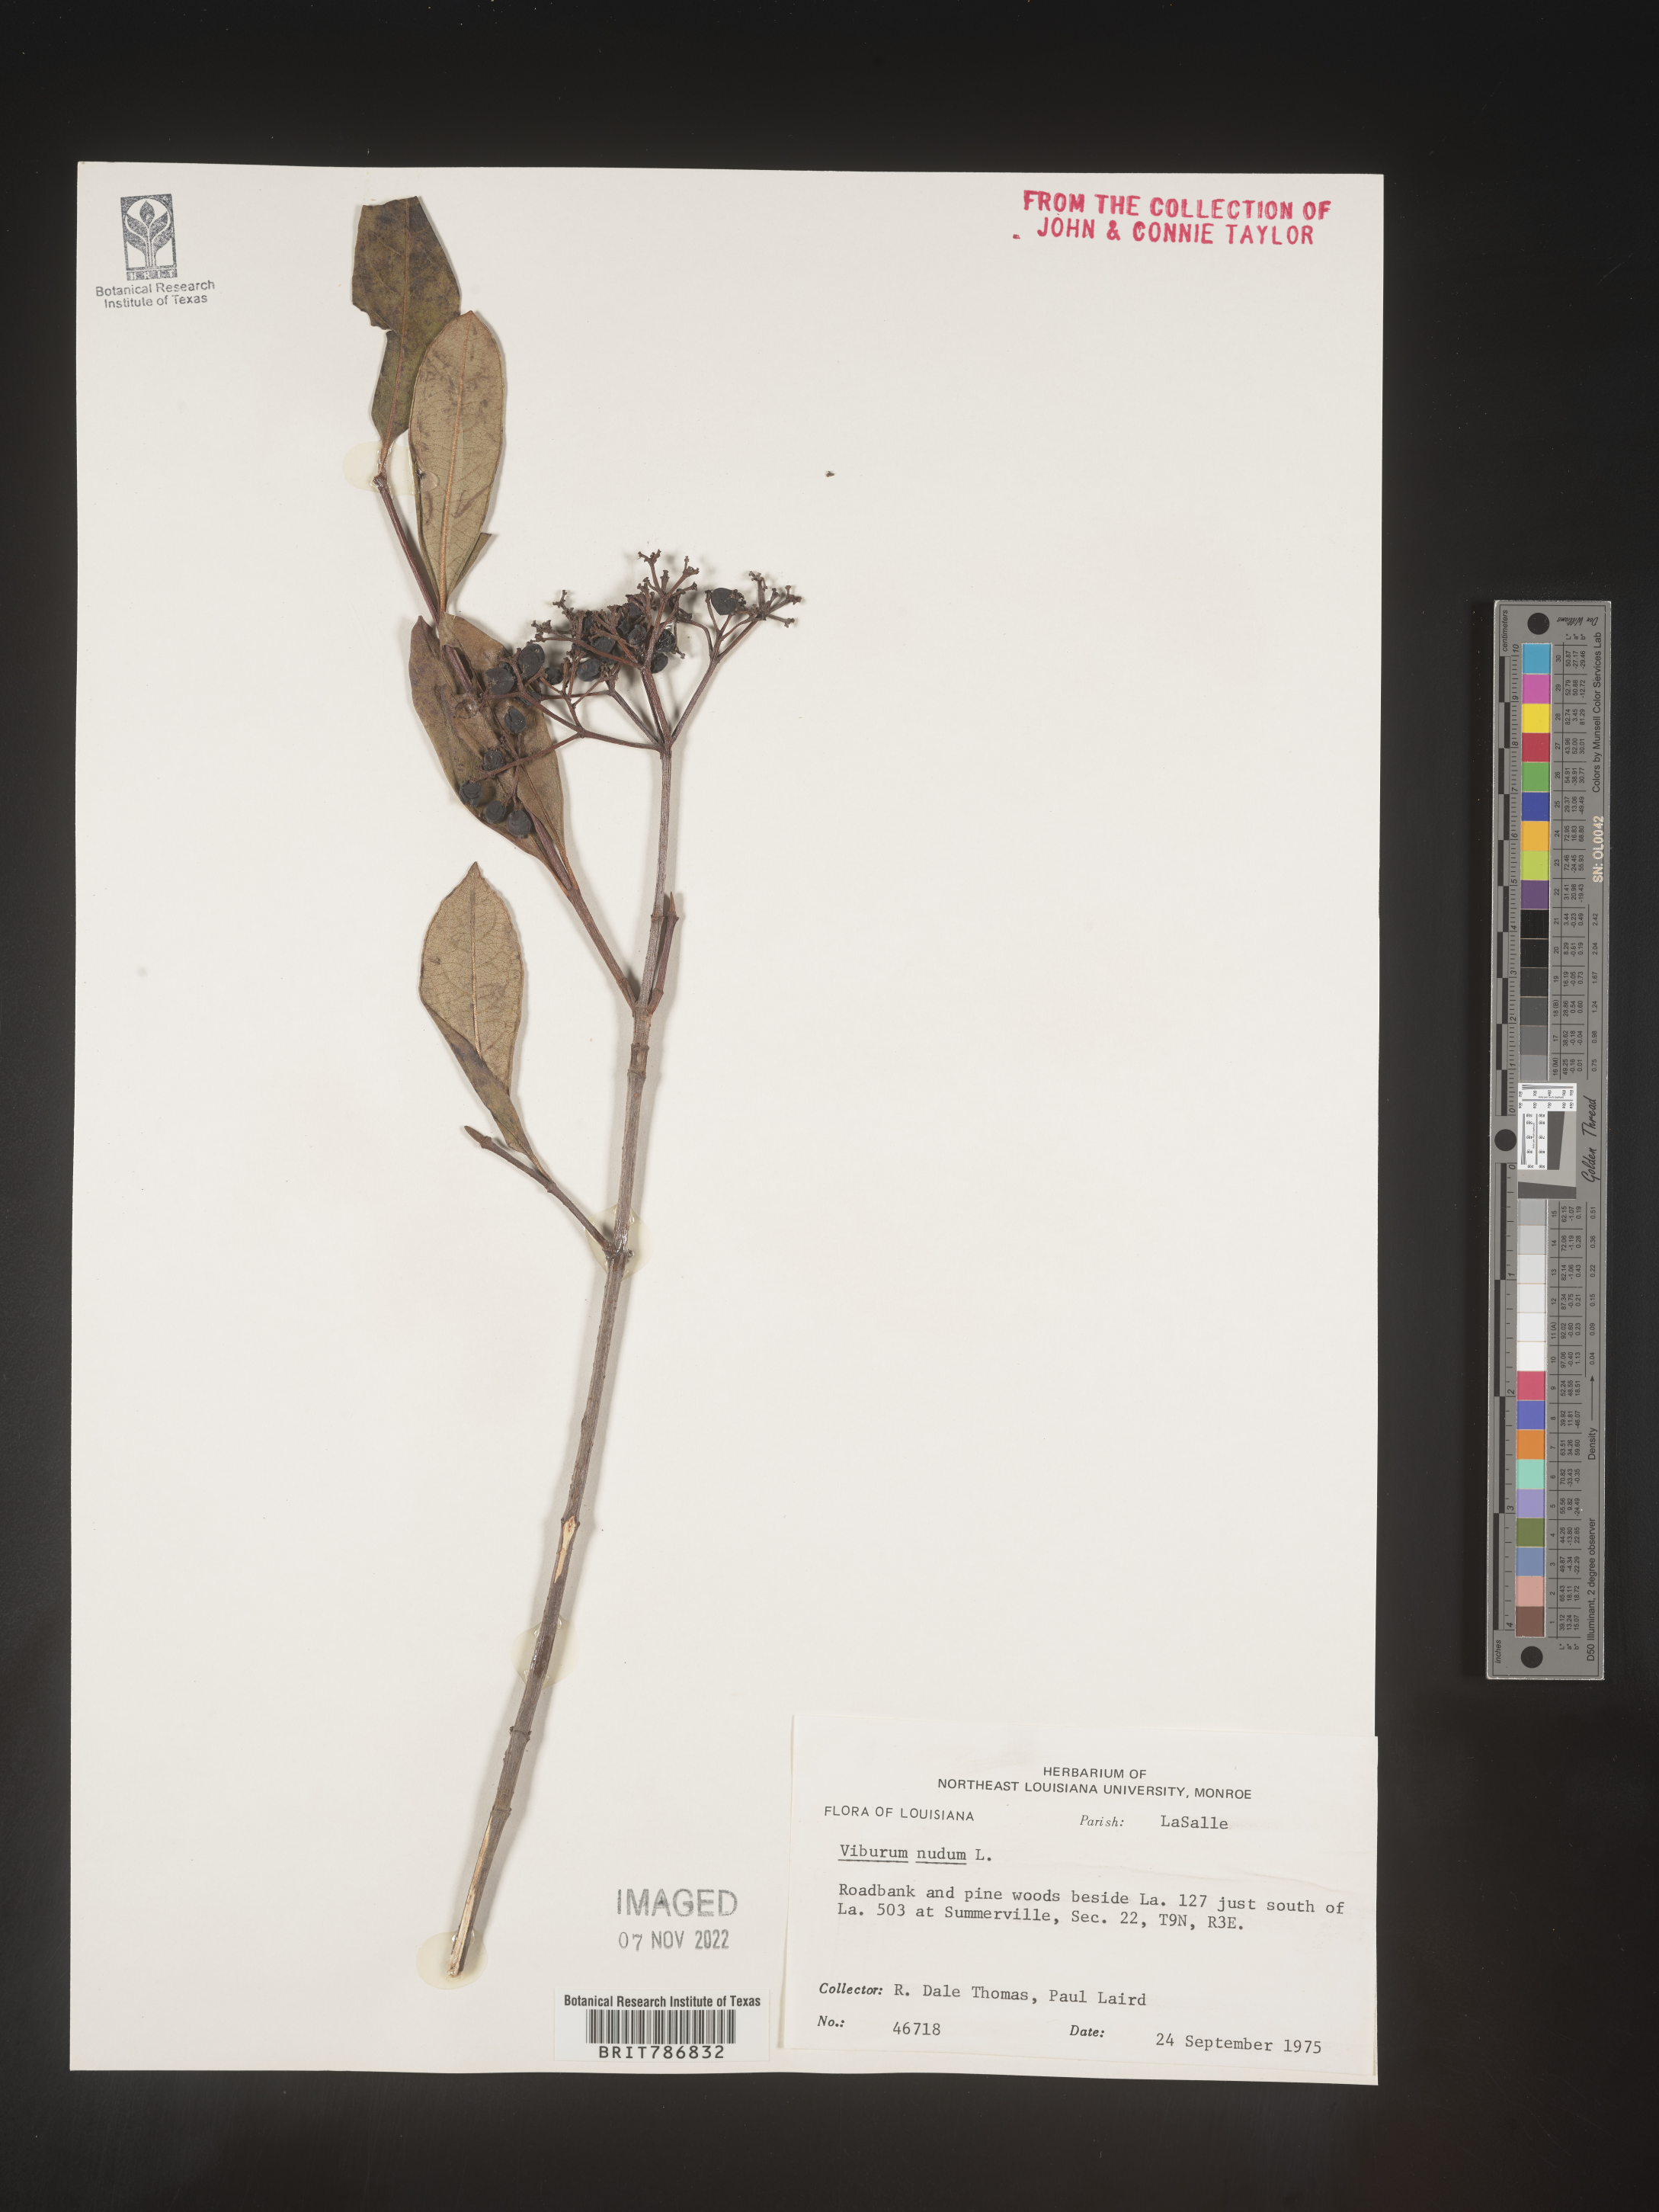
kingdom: Plantae
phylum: Tracheophyta
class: Magnoliopsida
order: Dipsacales
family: Viburnaceae
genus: Viburnum
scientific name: Viburnum nudum
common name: Possum haw
